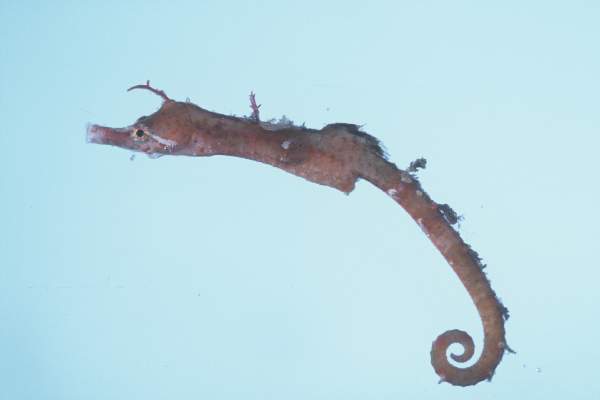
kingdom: Animalia
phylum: Chordata
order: Syngnathiformes
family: Syngnathidae
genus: Acentronura
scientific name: Acentronura
